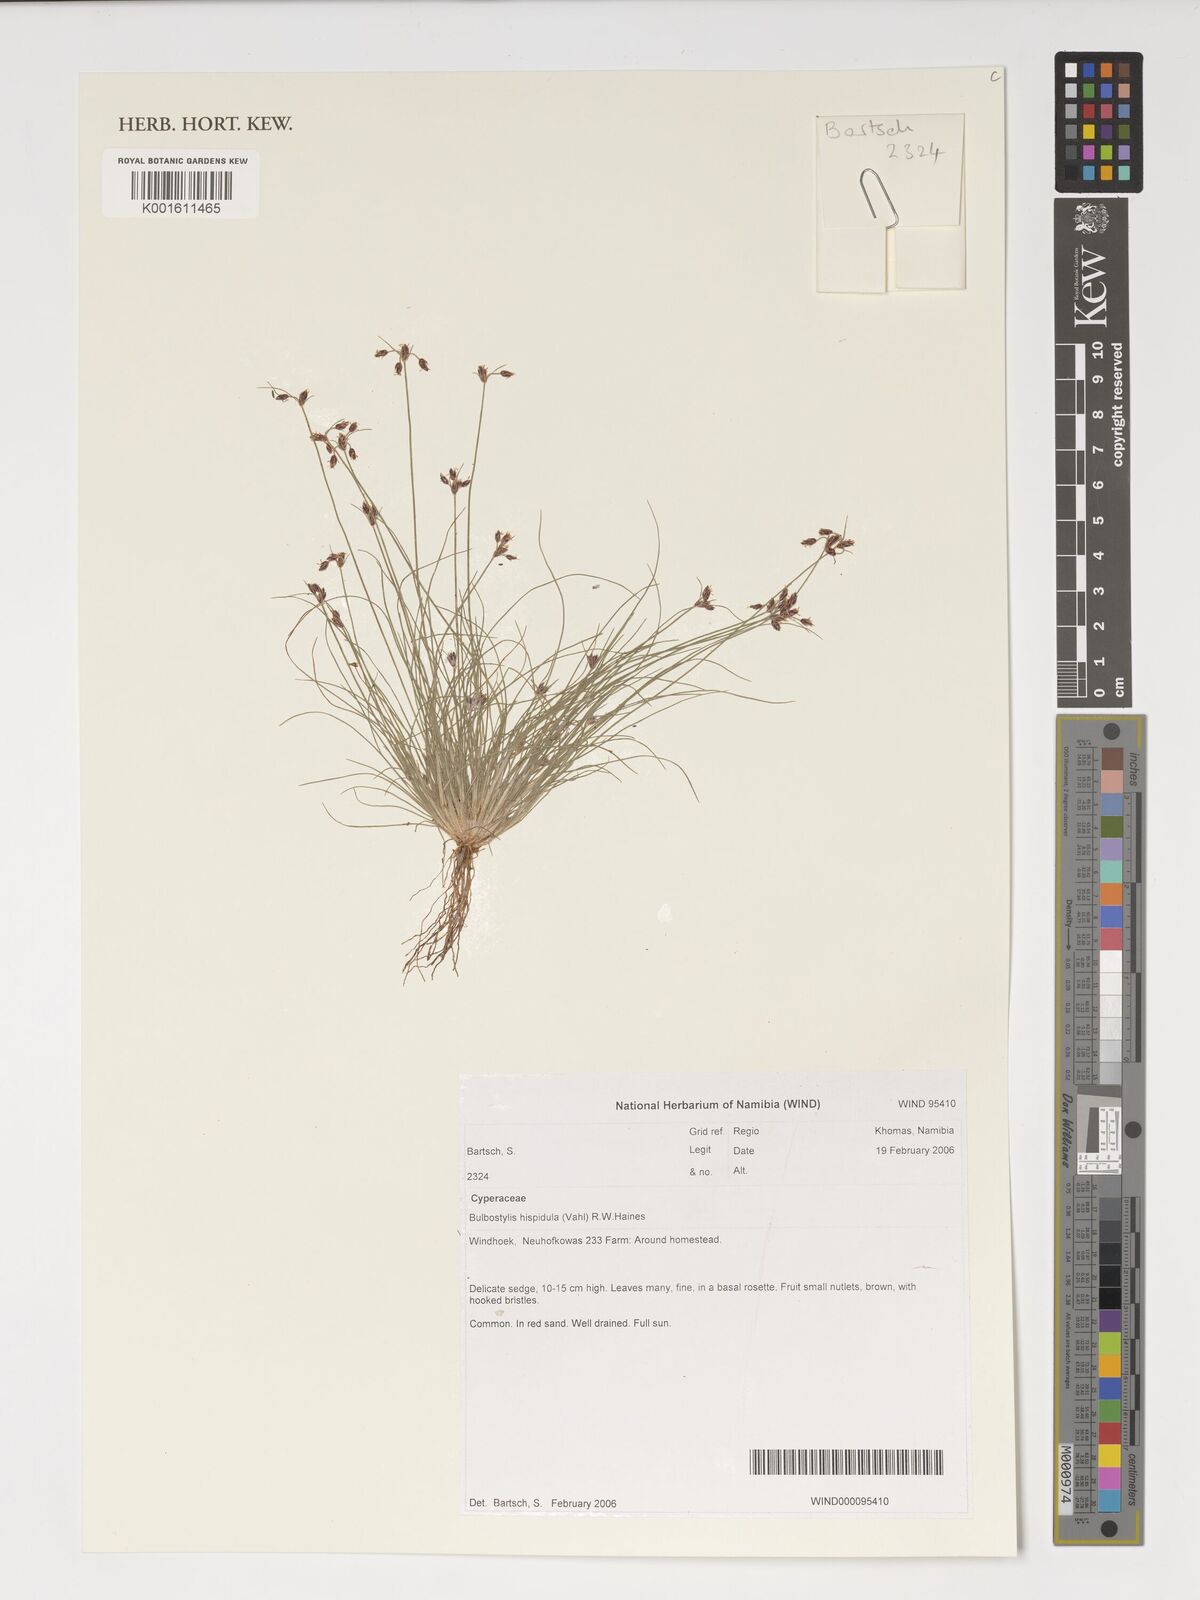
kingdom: Plantae
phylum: Tracheophyta
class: Liliopsida
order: Poales
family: Cyperaceae
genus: Bulbostylis
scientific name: Bulbostylis hispidula
